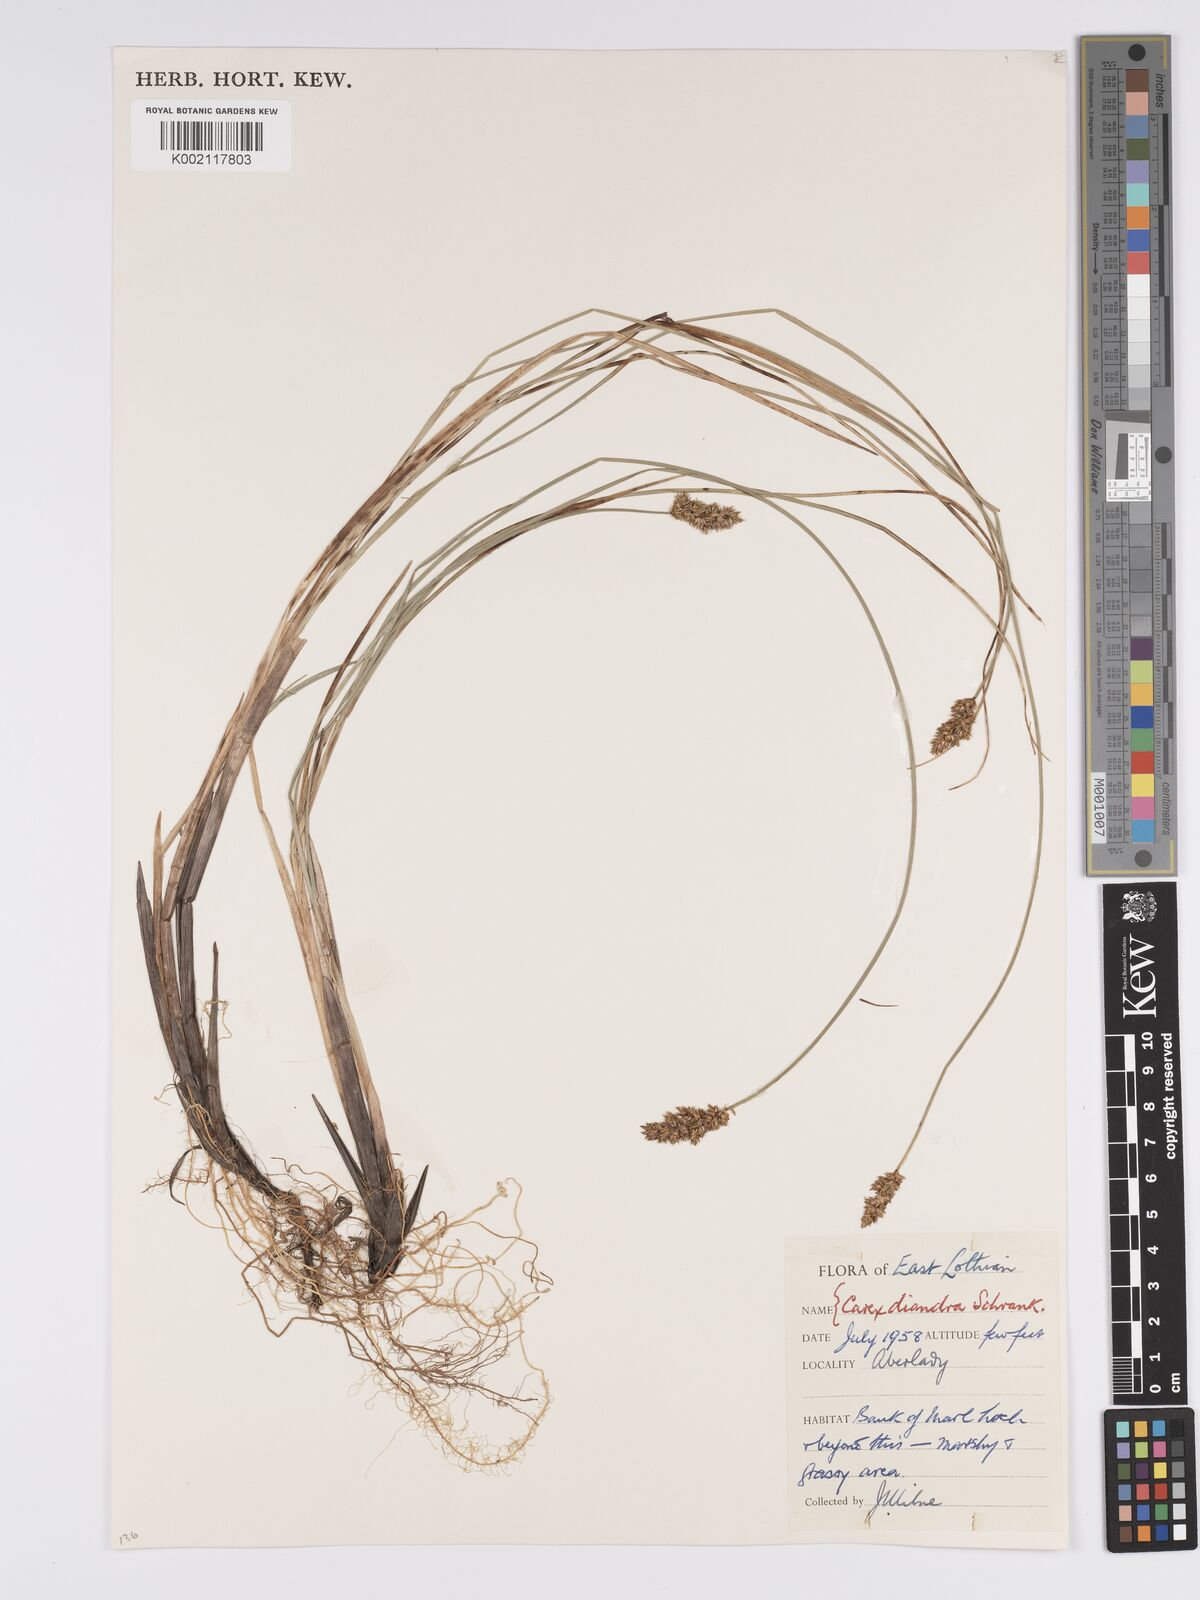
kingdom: Plantae
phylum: Tracheophyta
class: Liliopsida
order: Poales
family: Cyperaceae
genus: Carex
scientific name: Carex diandra
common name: Lesser tussock-sedge
